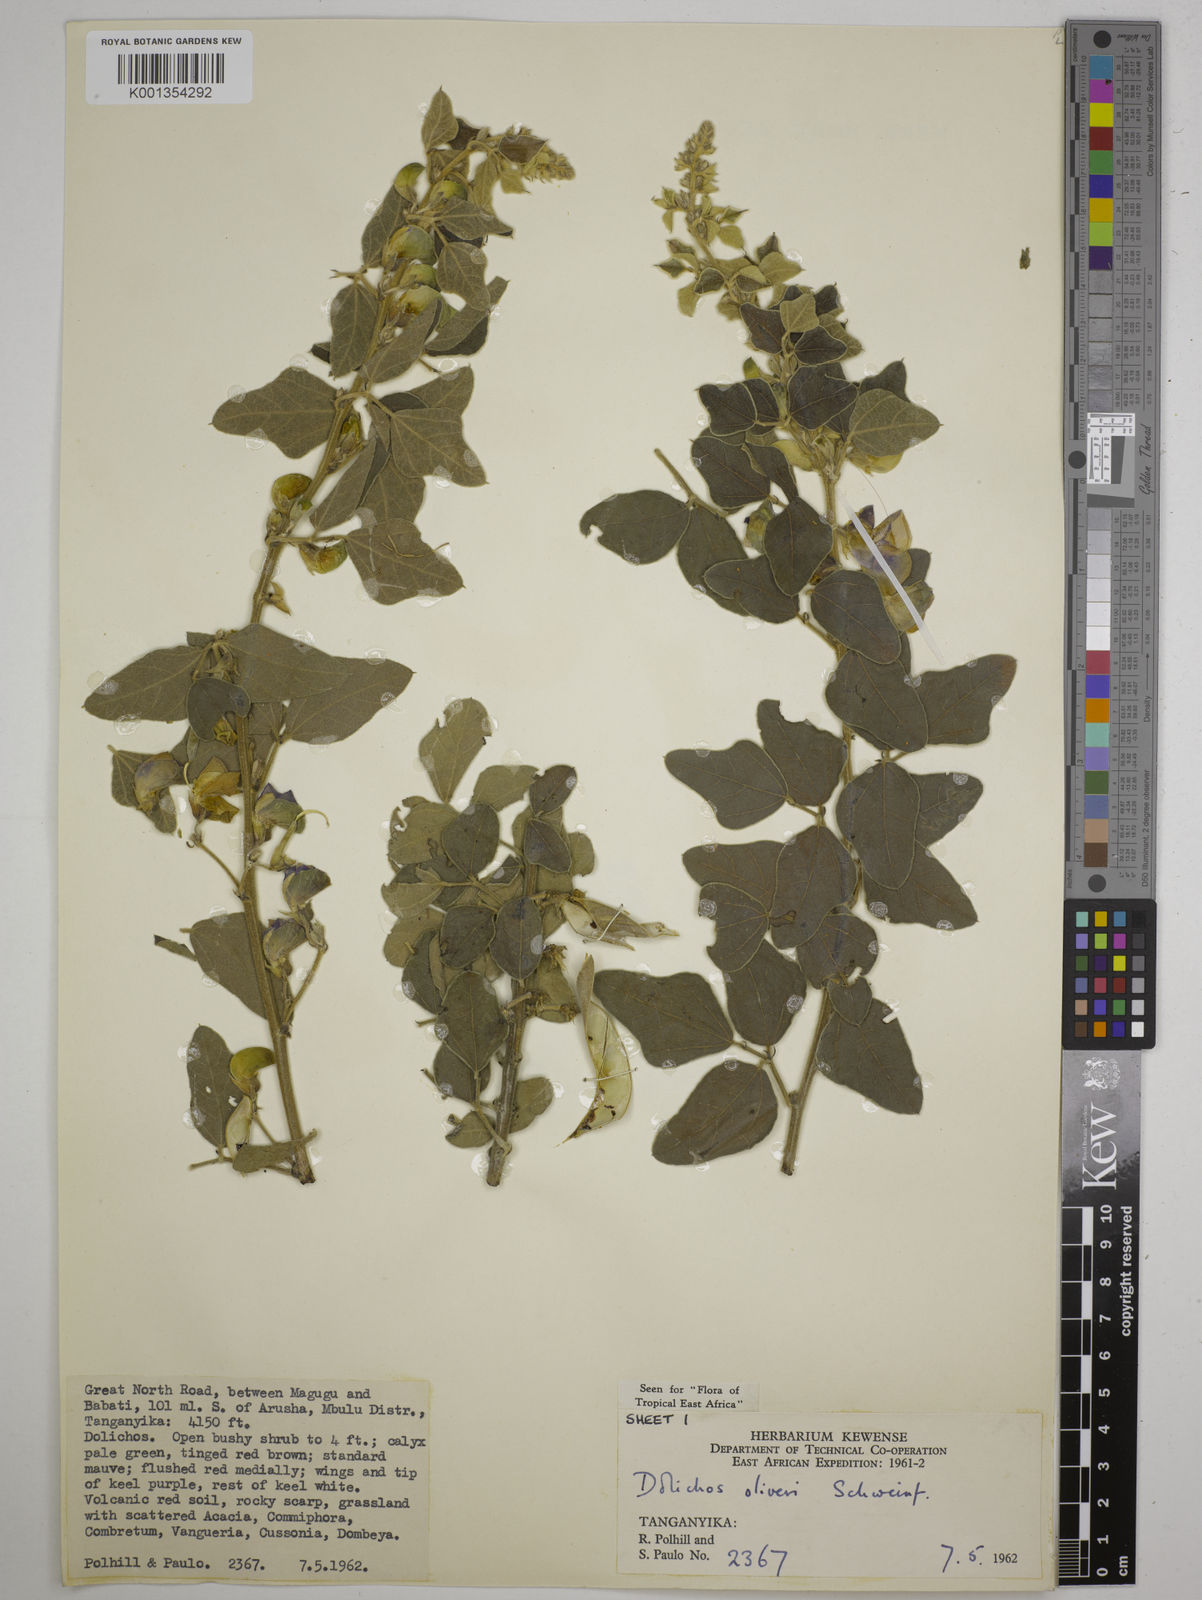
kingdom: Plantae
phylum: Tracheophyta
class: Magnoliopsida
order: Fabales
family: Fabaceae
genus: Dolichos
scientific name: Dolichos oliveri
